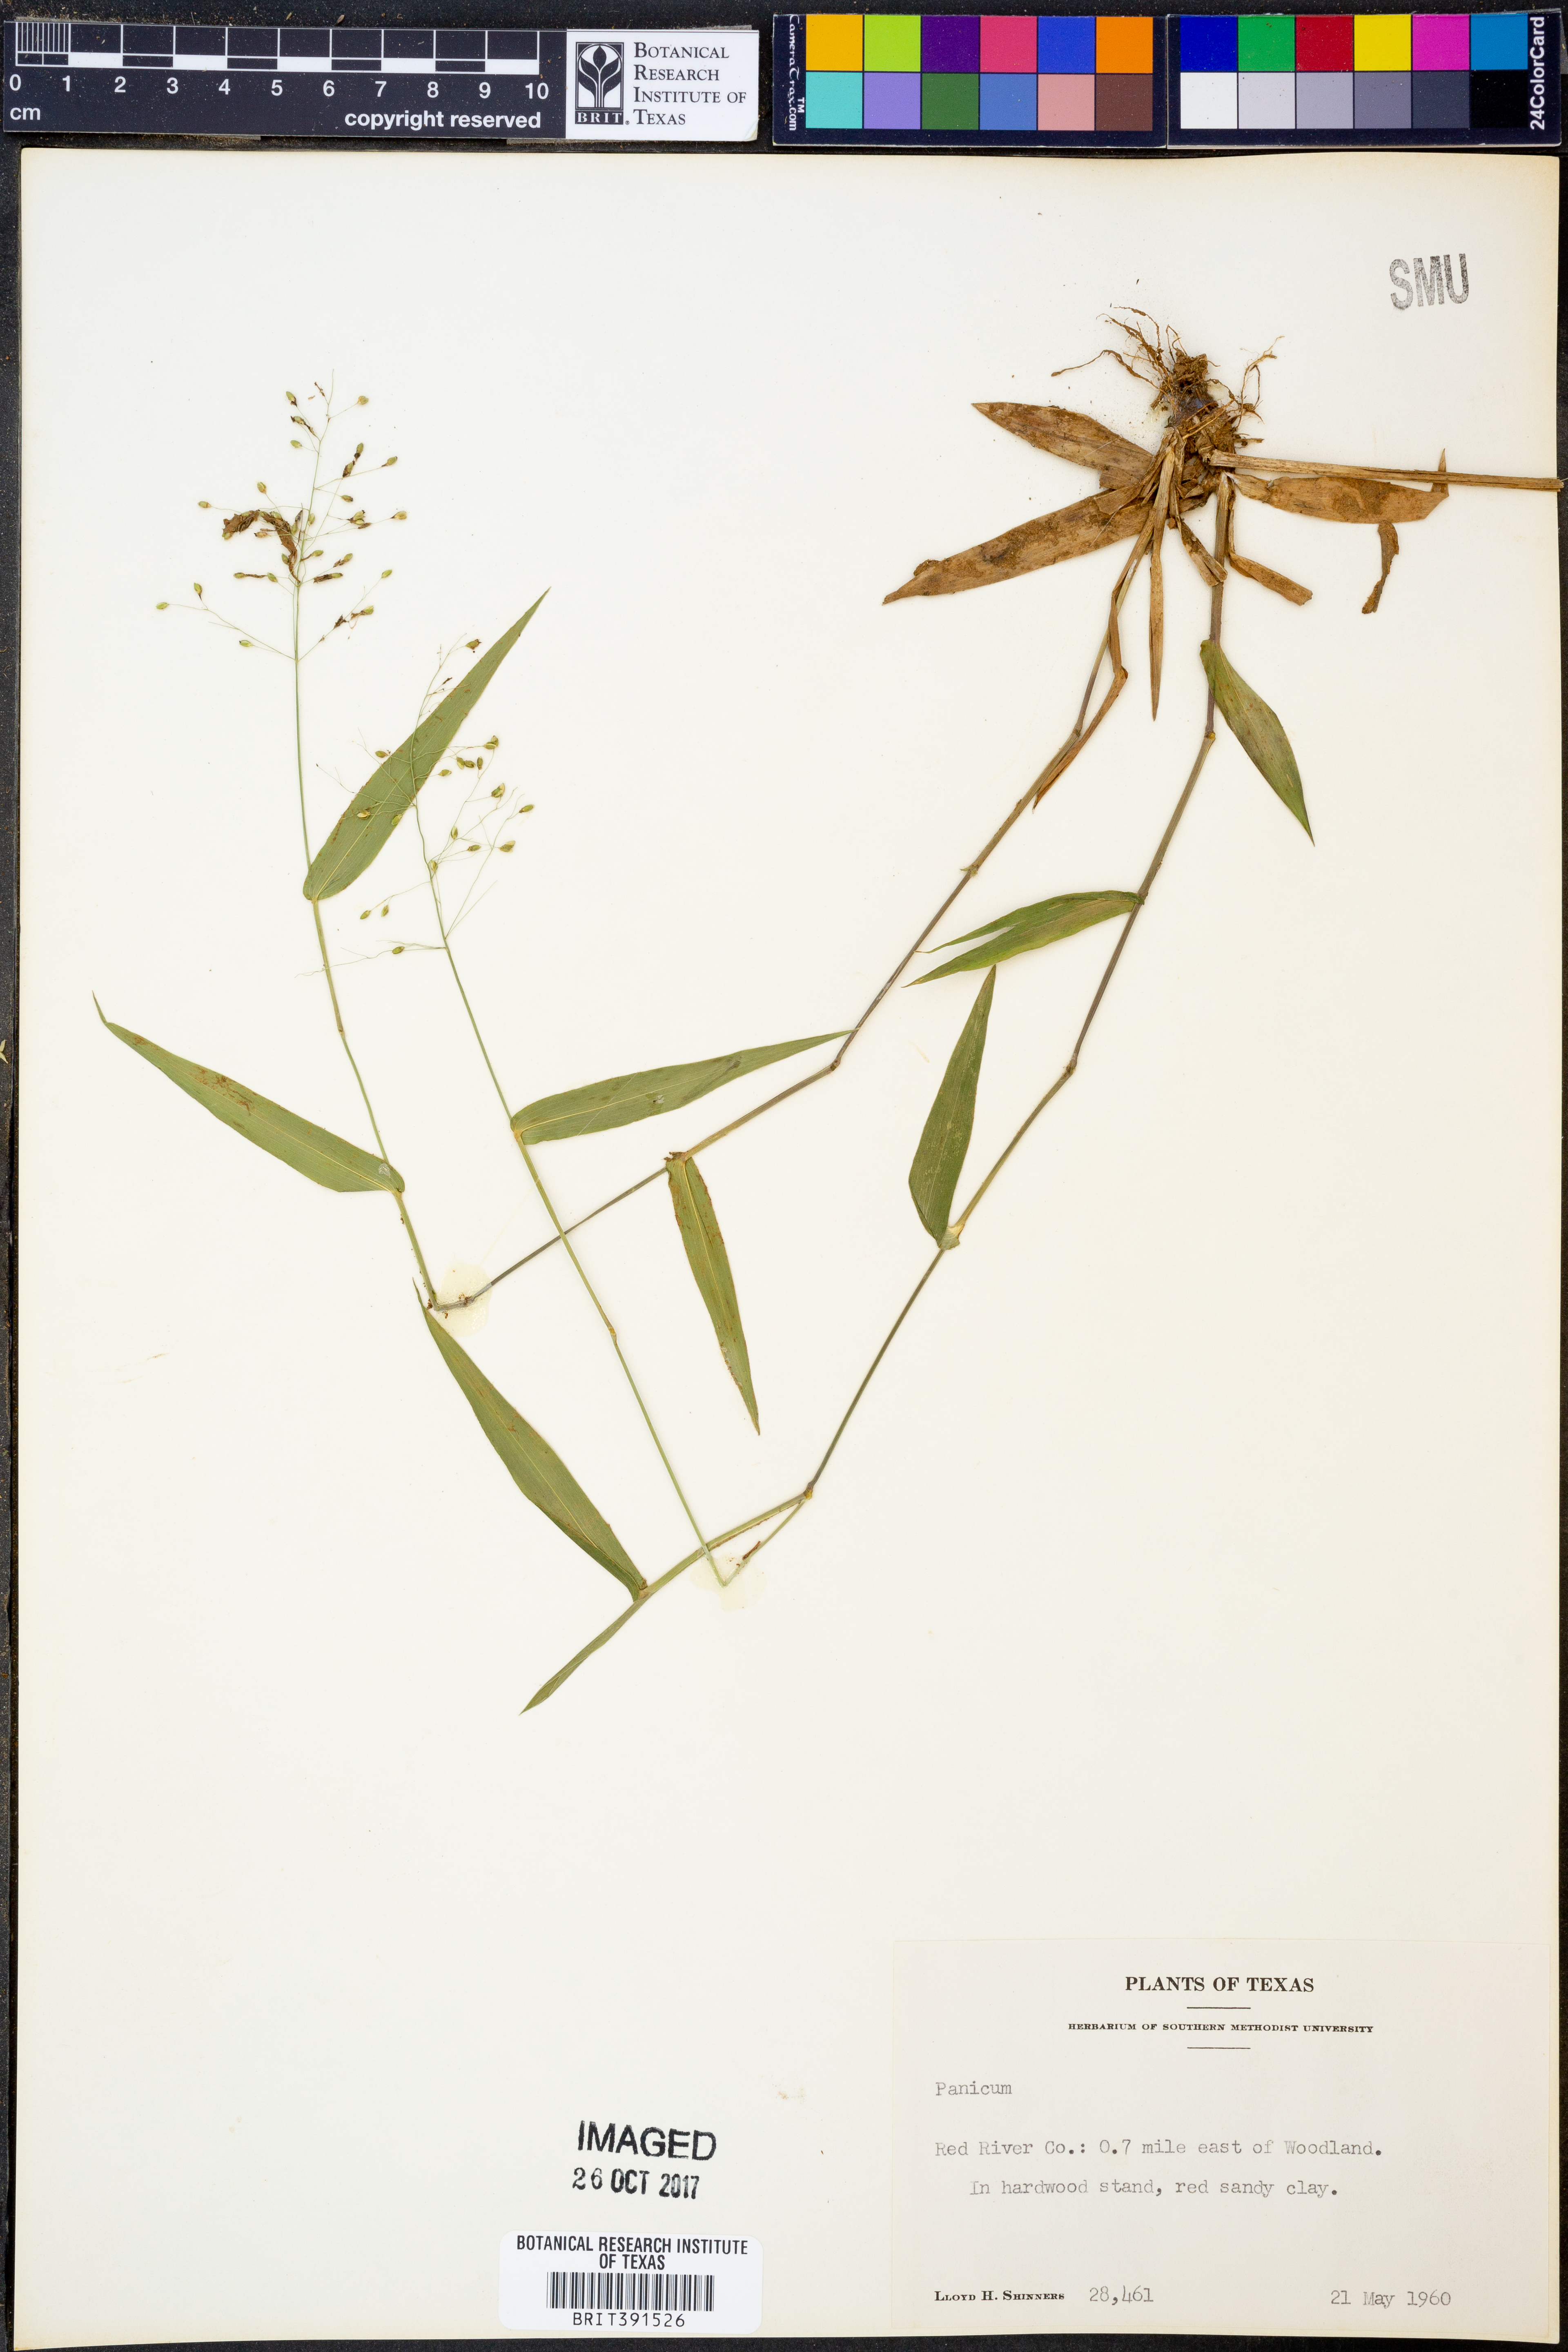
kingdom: Plantae
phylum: Tracheophyta
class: Liliopsida
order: Poales
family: Poaceae
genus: Panicum
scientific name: Panicum
